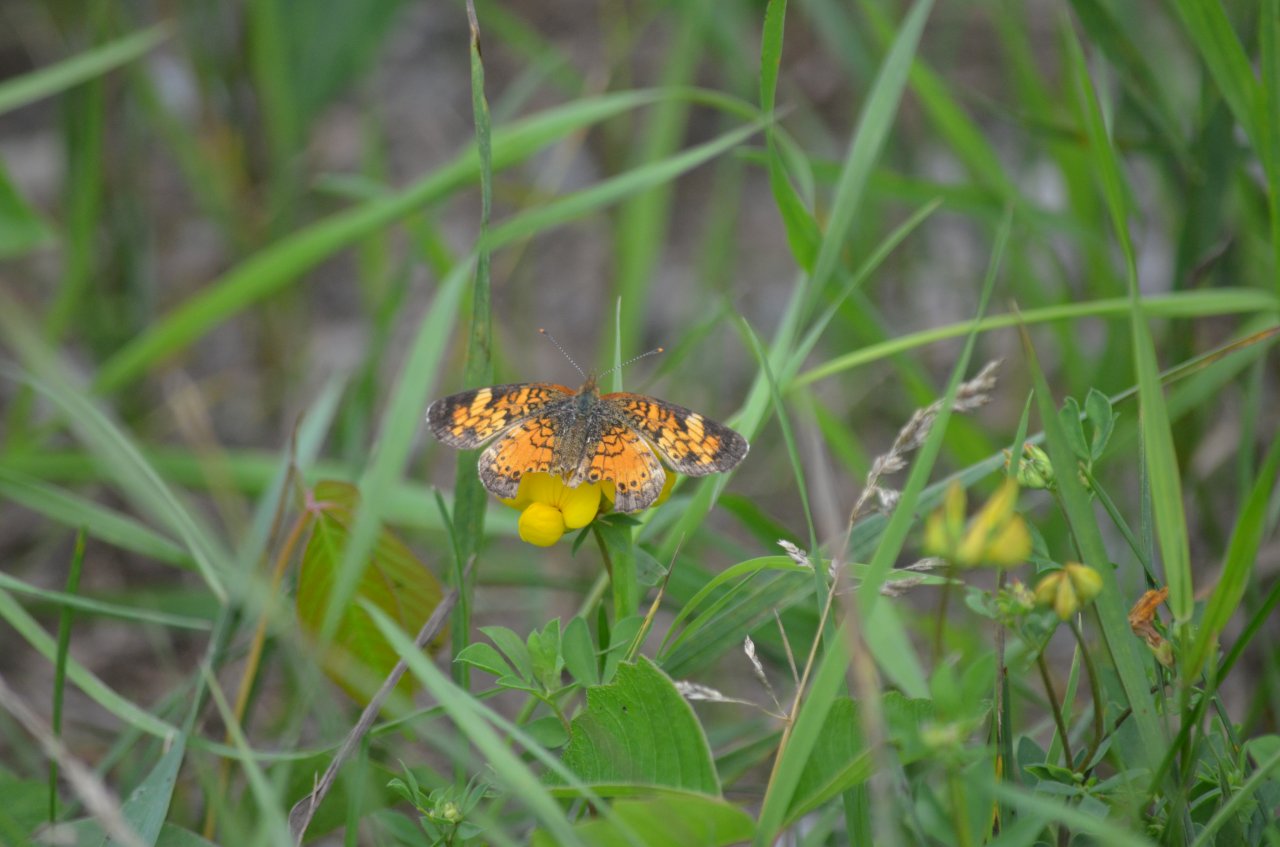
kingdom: Animalia
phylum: Arthropoda
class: Insecta
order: Lepidoptera
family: Nymphalidae
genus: Phyciodes
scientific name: Phyciodes tharos
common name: Northern Crescent
